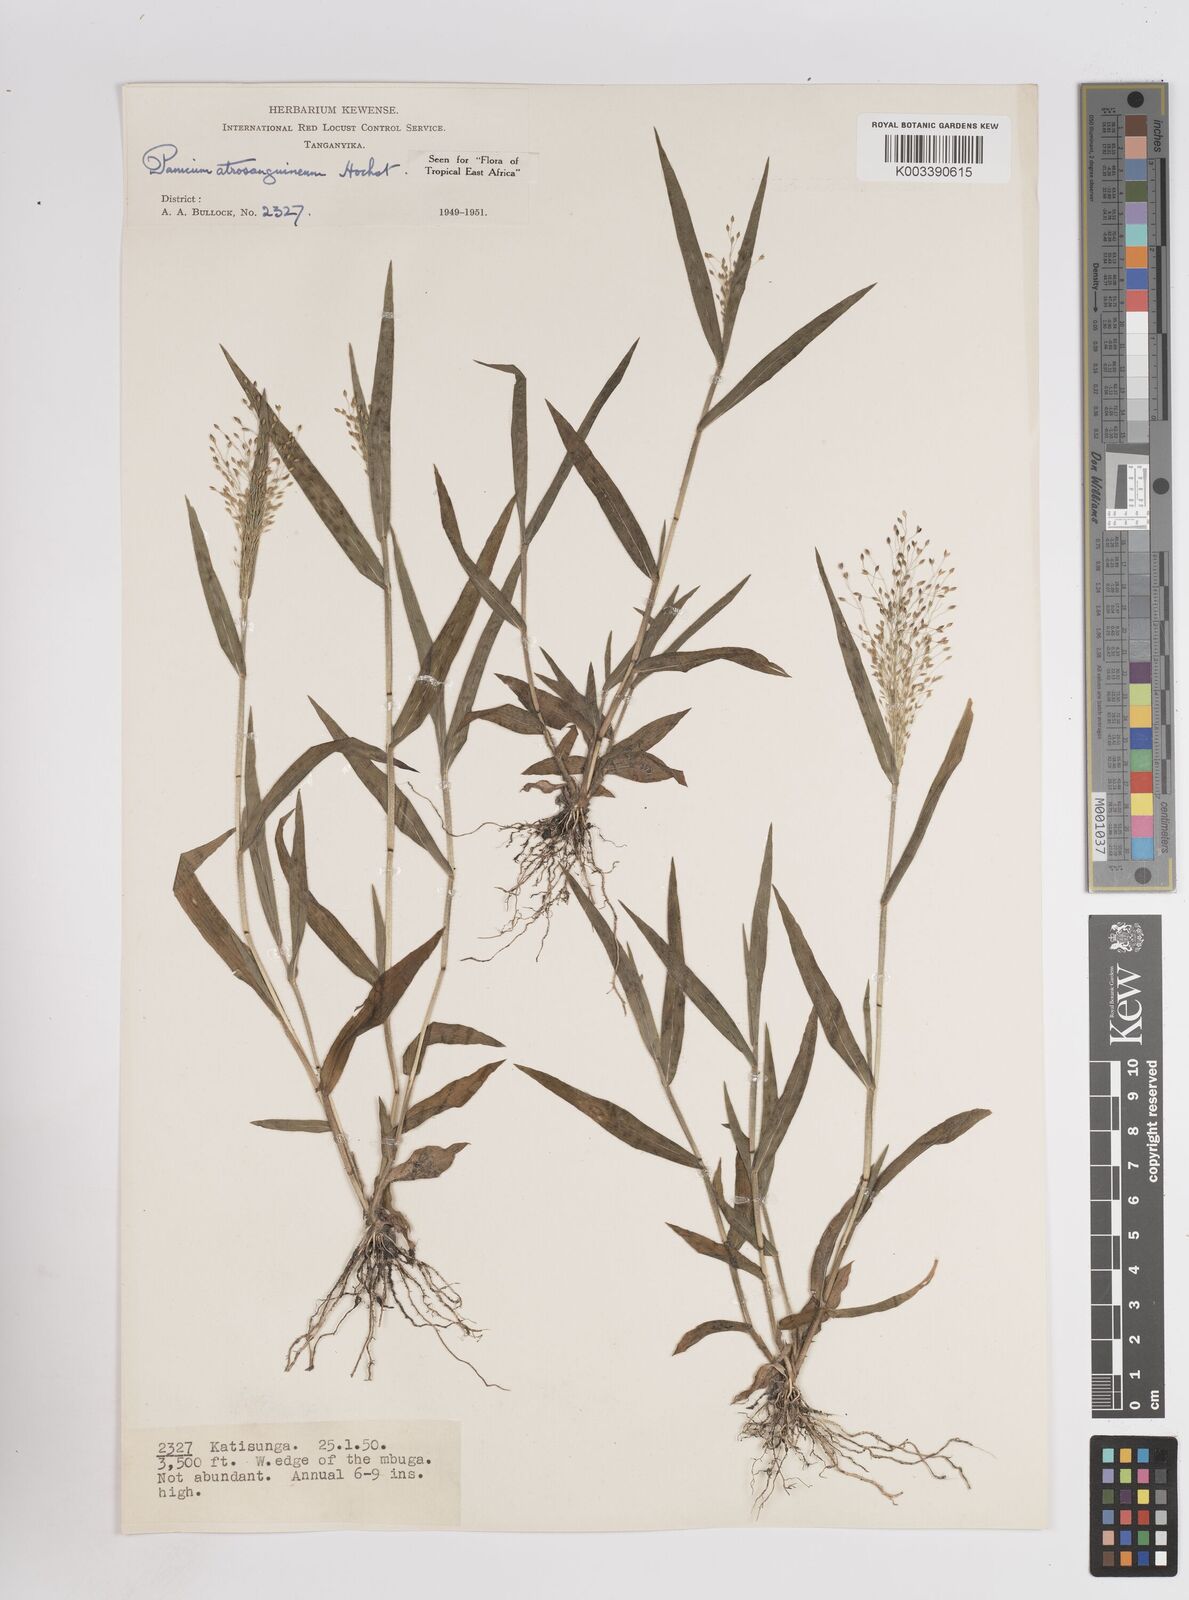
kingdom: Plantae
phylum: Tracheophyta
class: Liliopsida
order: Poales
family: Poaceae
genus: Panicum
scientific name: Panicum atrosanguineum
